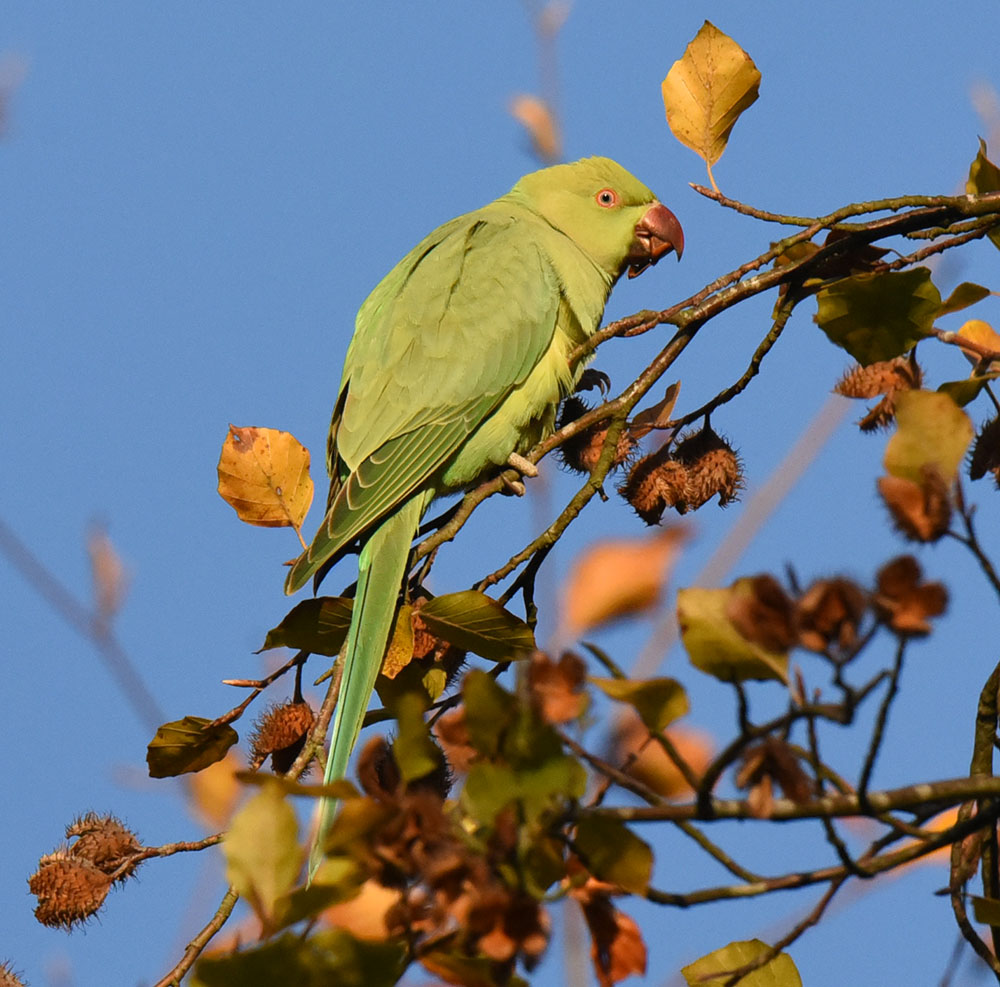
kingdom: Animalia
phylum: Chordata
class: Aves
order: Psittaciformes
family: Psittacidae
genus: Psittacula
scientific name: Psittacula krameri
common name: Rose-ringed parakeet
